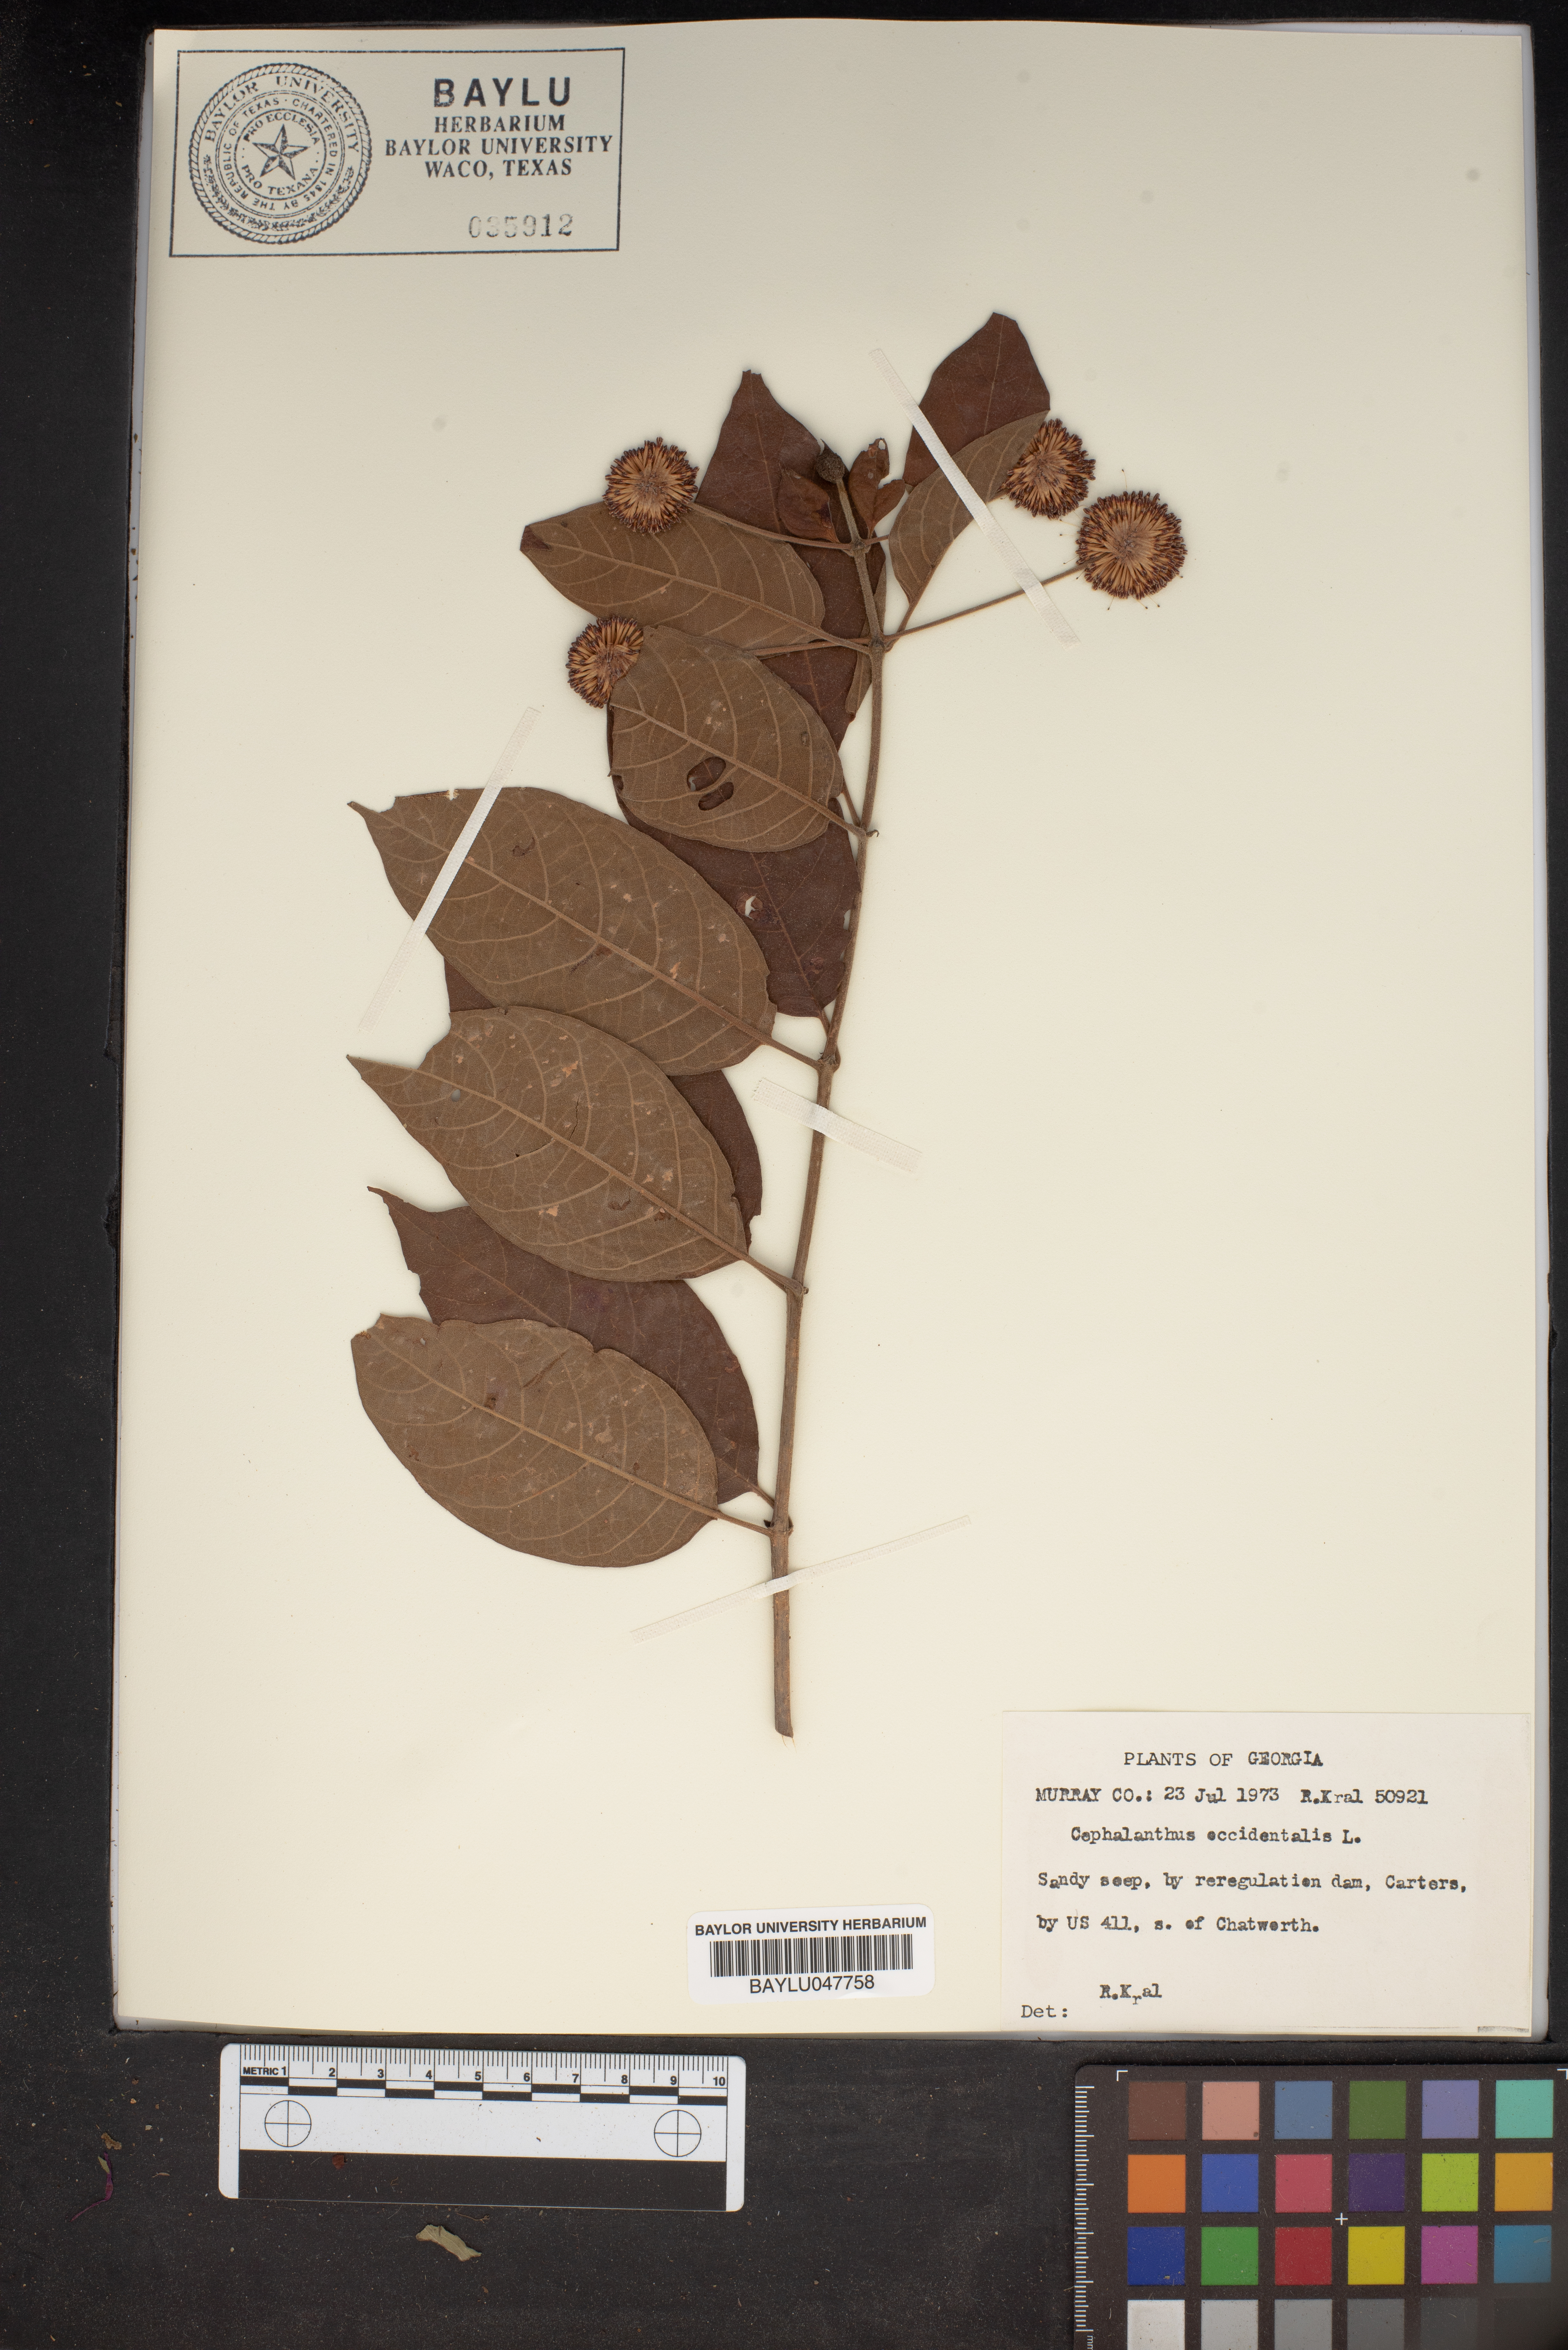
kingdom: Plantae
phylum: Tracheophyta
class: Magnoliopsida
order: Gentianales
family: Rubiaceae
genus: Cephalanthus
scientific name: Cephalanthus occidentalis
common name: Button-willow
